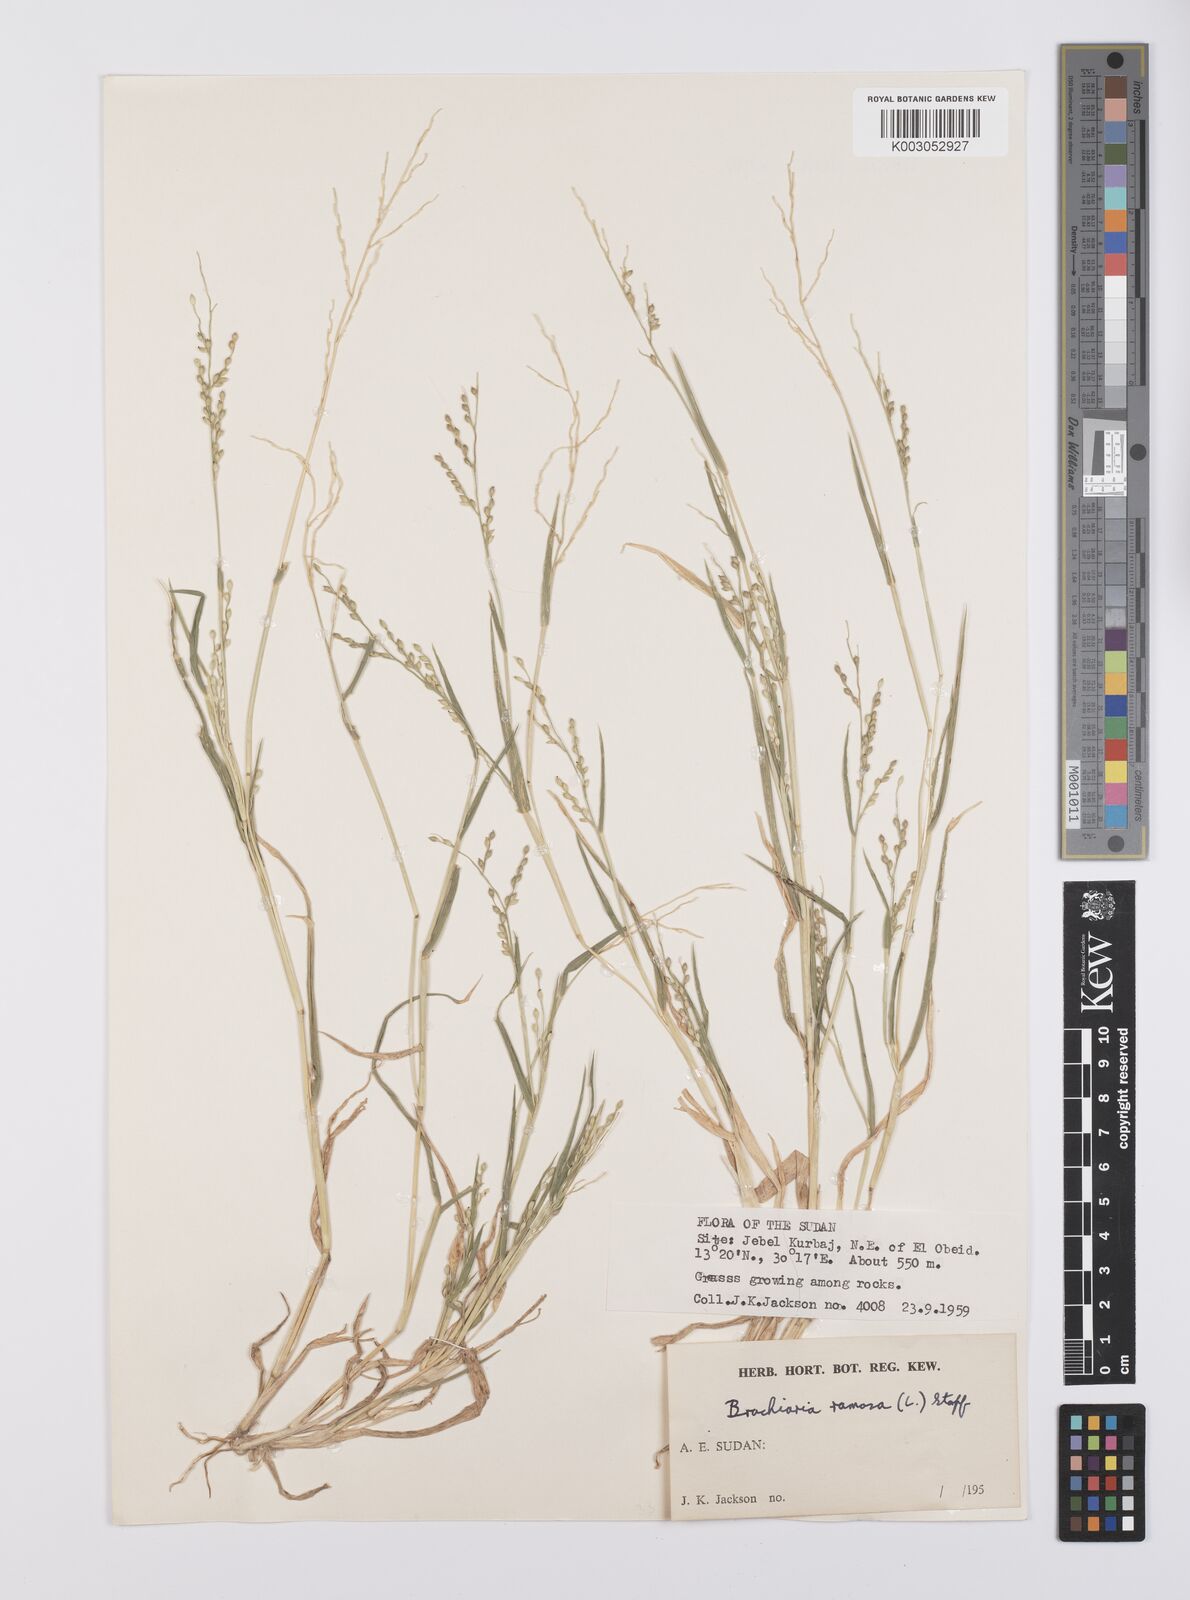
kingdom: Plantae
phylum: Tracheophyta
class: Liliopsida
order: Poales
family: Poaceae
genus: Urochloa
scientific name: Urochloa ramosa
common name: Browntop millet
